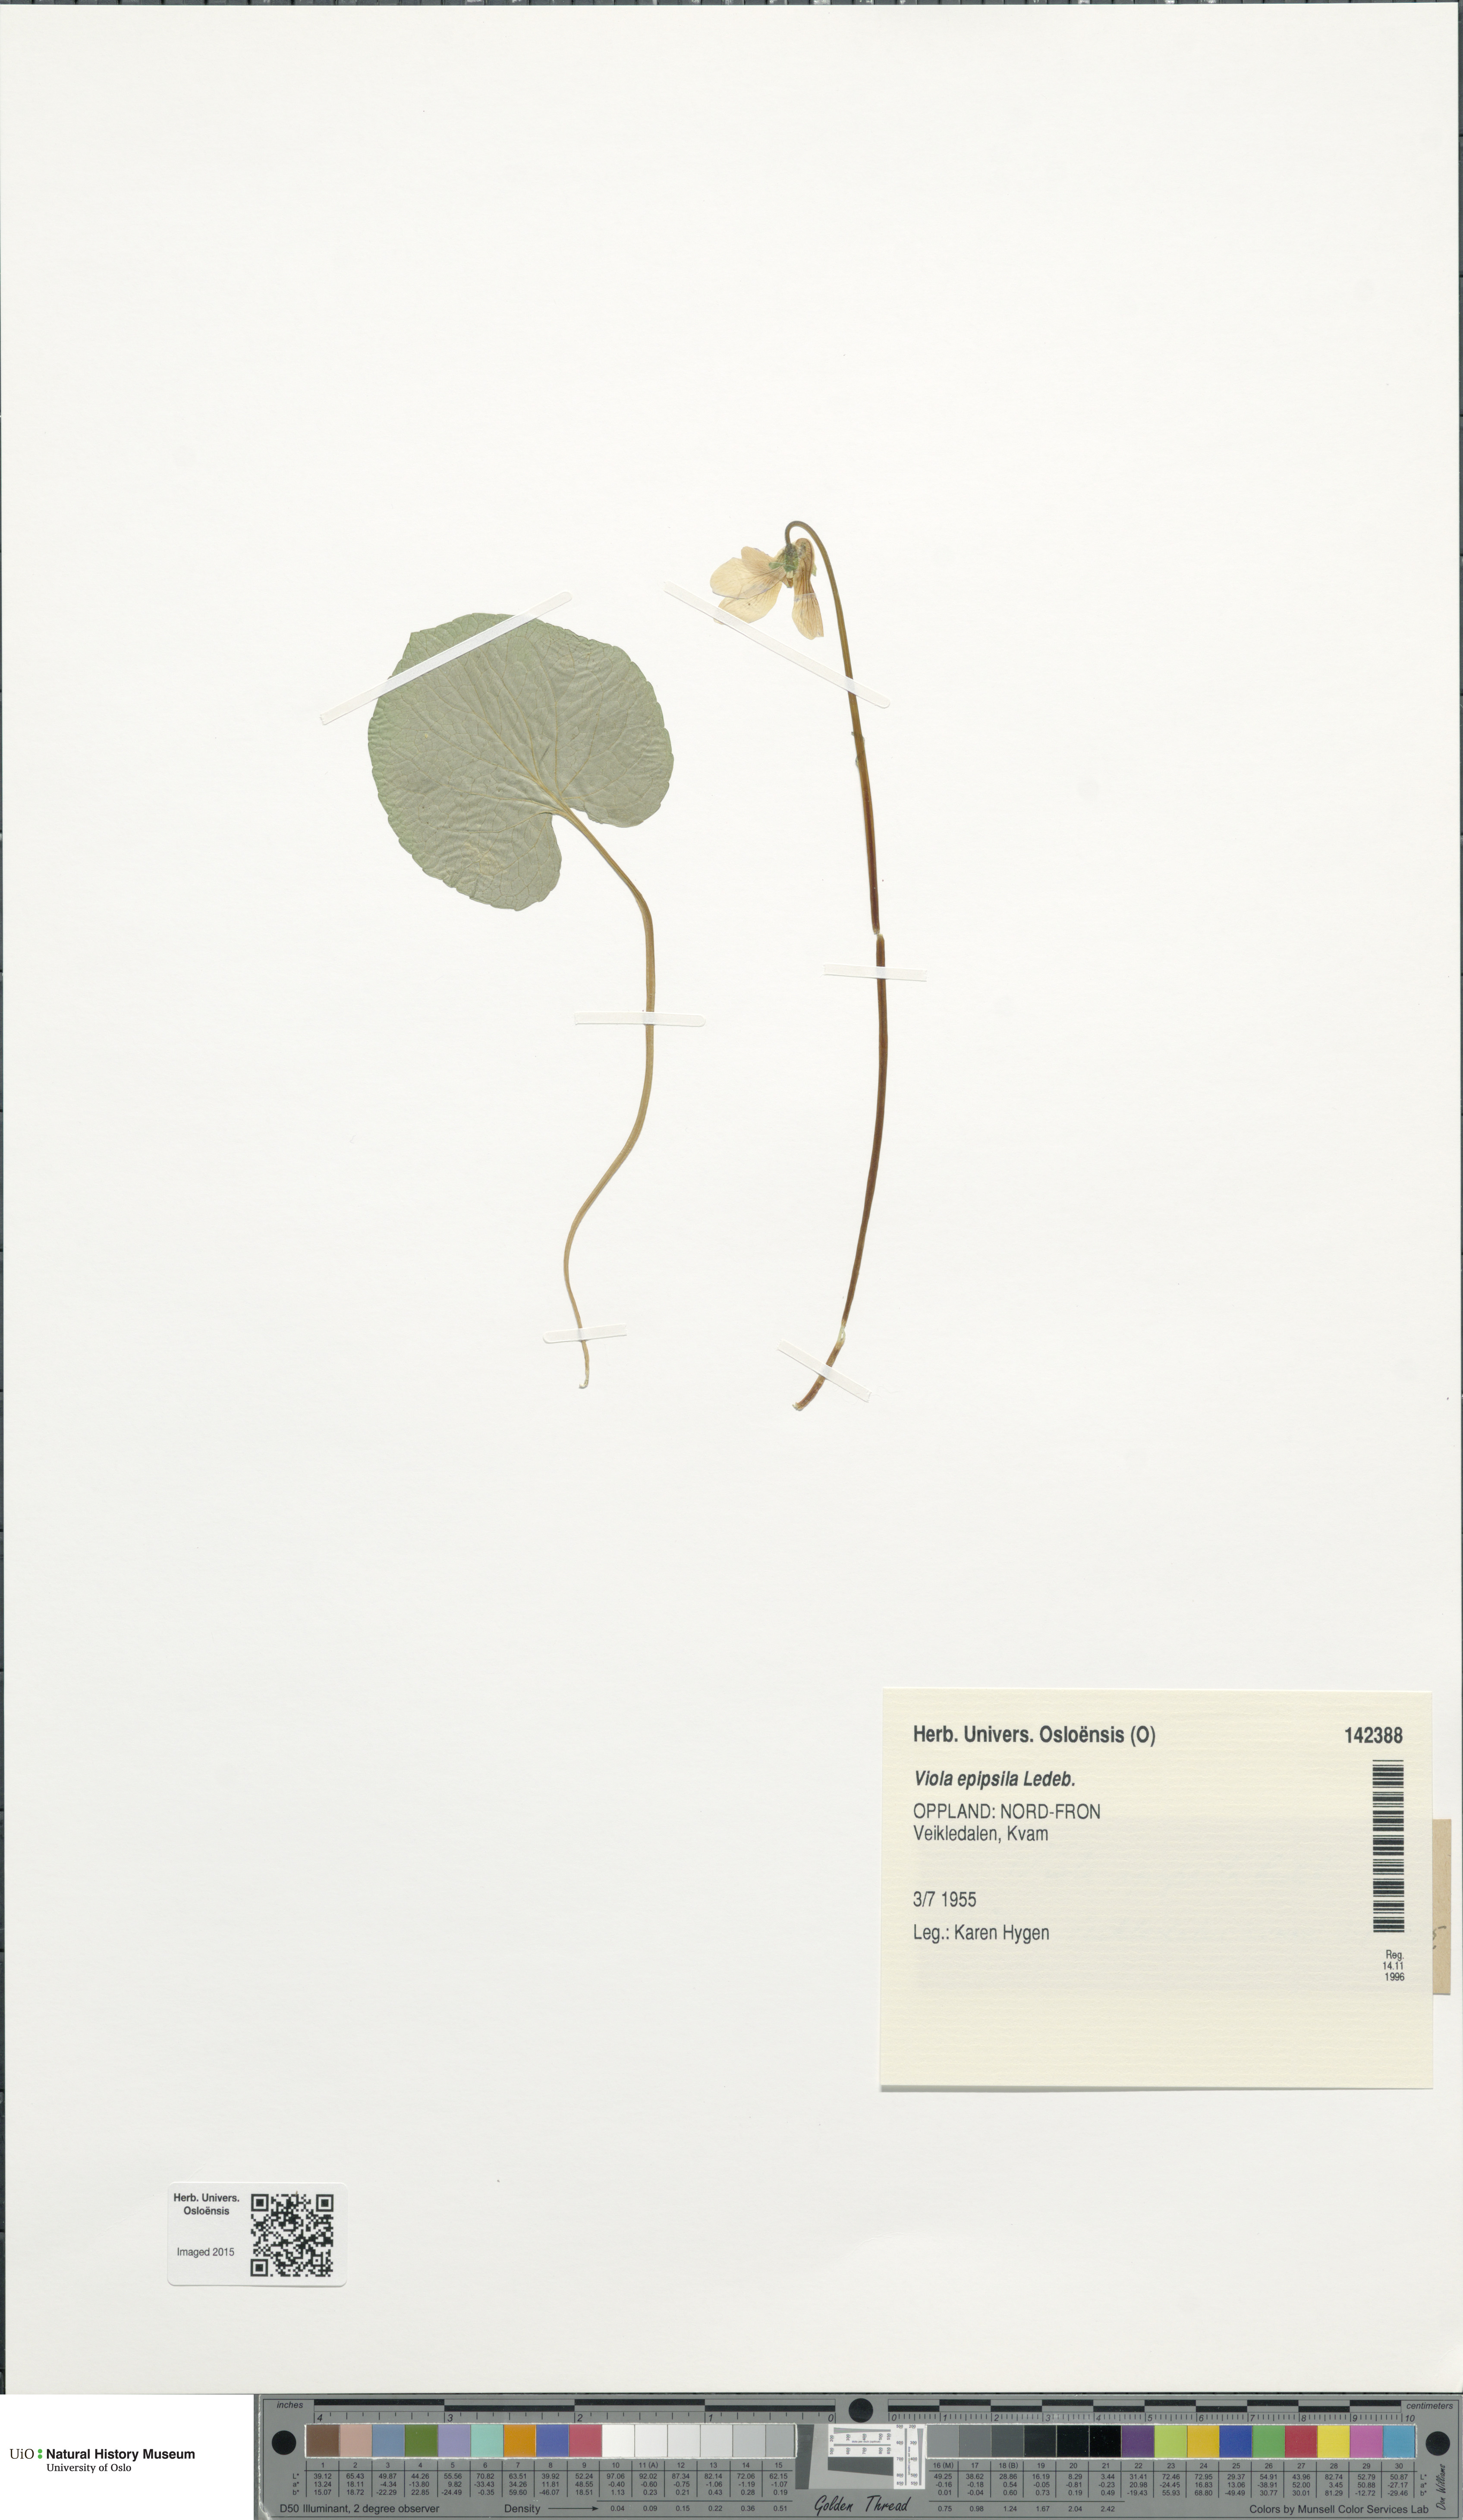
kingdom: Plantae
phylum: Tracheophyta
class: Magnoliopsida
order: Malpighiales
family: Violaceae
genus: Viola
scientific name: Viola epipsila
